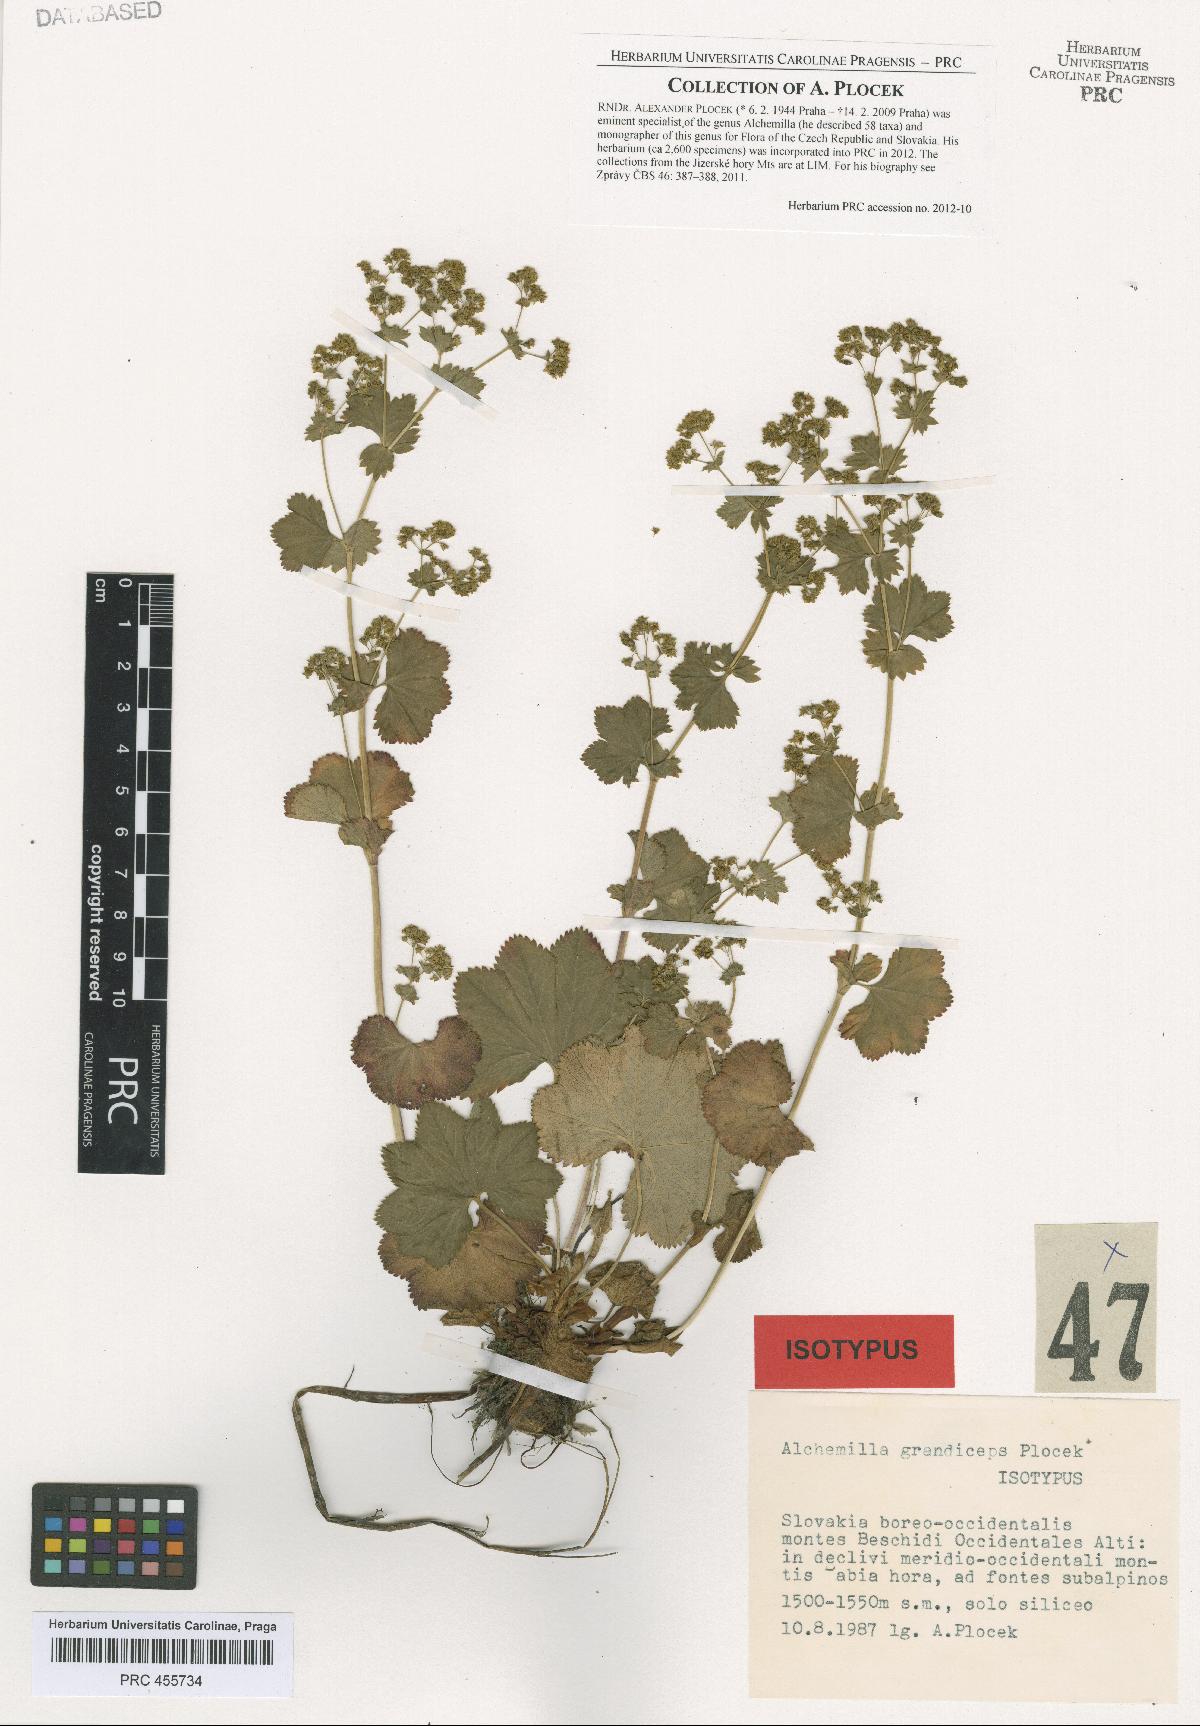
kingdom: Plantae
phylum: Tracheophyta
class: Magnoliopsida
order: Rosales
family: Rosaceae
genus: Alchemilla
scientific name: Alchemilla grandiceps
